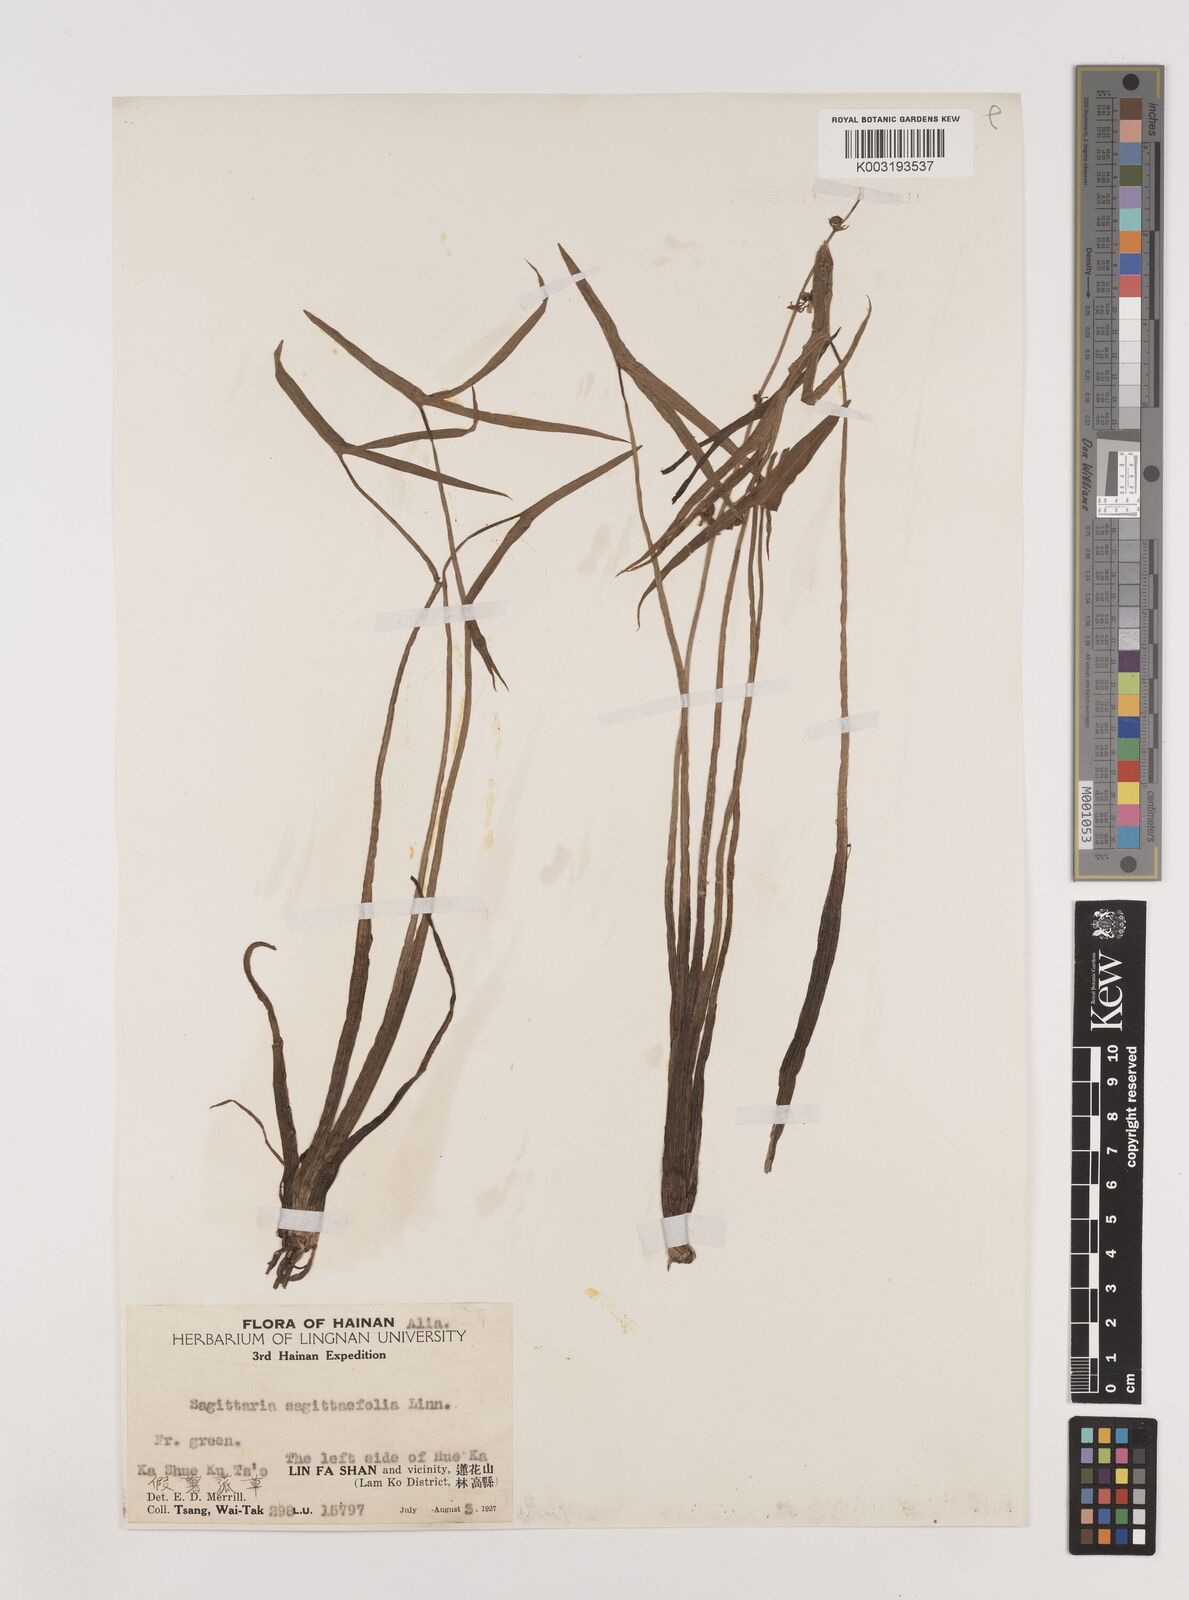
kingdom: Plantae
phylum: Tracheophyta
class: Liliopsida
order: Alismatales
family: Alismataceae
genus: Sagittaria
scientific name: Sagittaria sagittifolia
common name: Arrowhead
